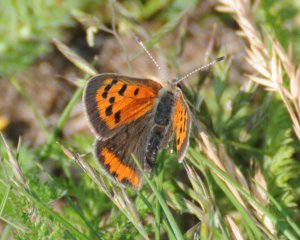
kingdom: Animalia
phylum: Arthropoda
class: Insecta
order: Lepidoptera
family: Lycaenidae
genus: Lycaena
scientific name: Lycaena phlaeas
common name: American Copper
